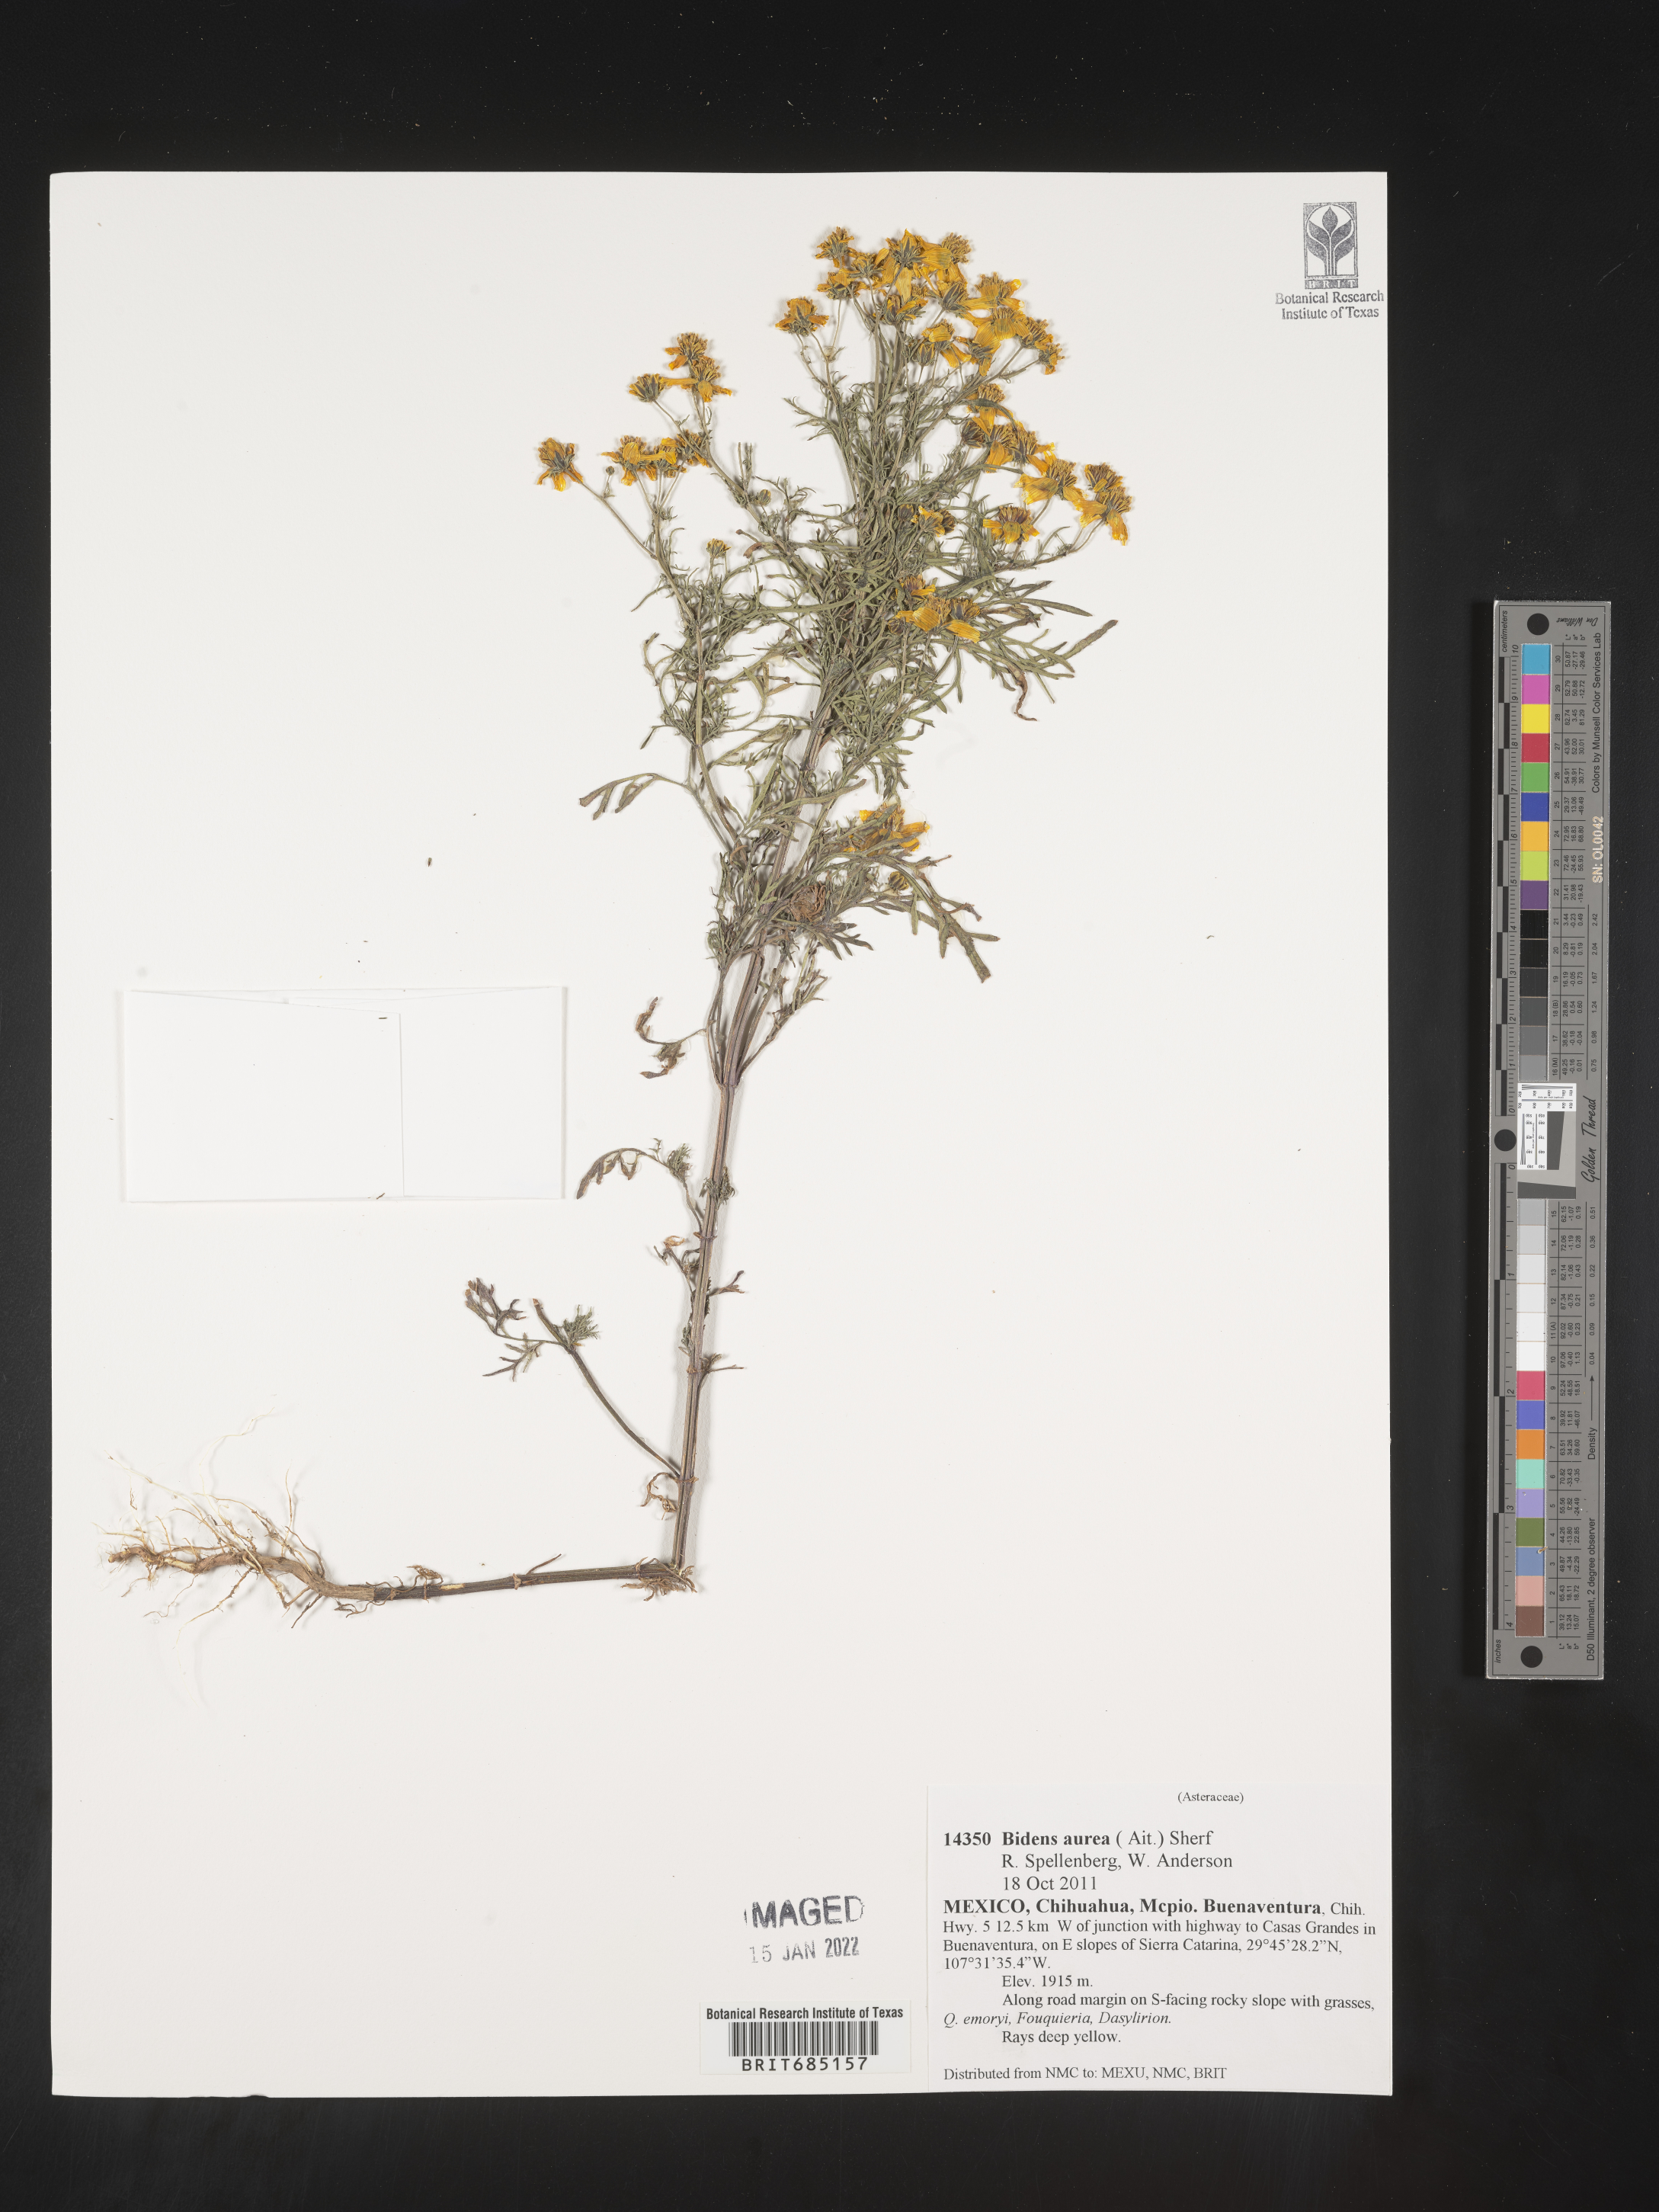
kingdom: Plantae
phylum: Tracheophyta
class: Magnoliopsida
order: Asterales
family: Asteraceae
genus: Bidens
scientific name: Bidens
